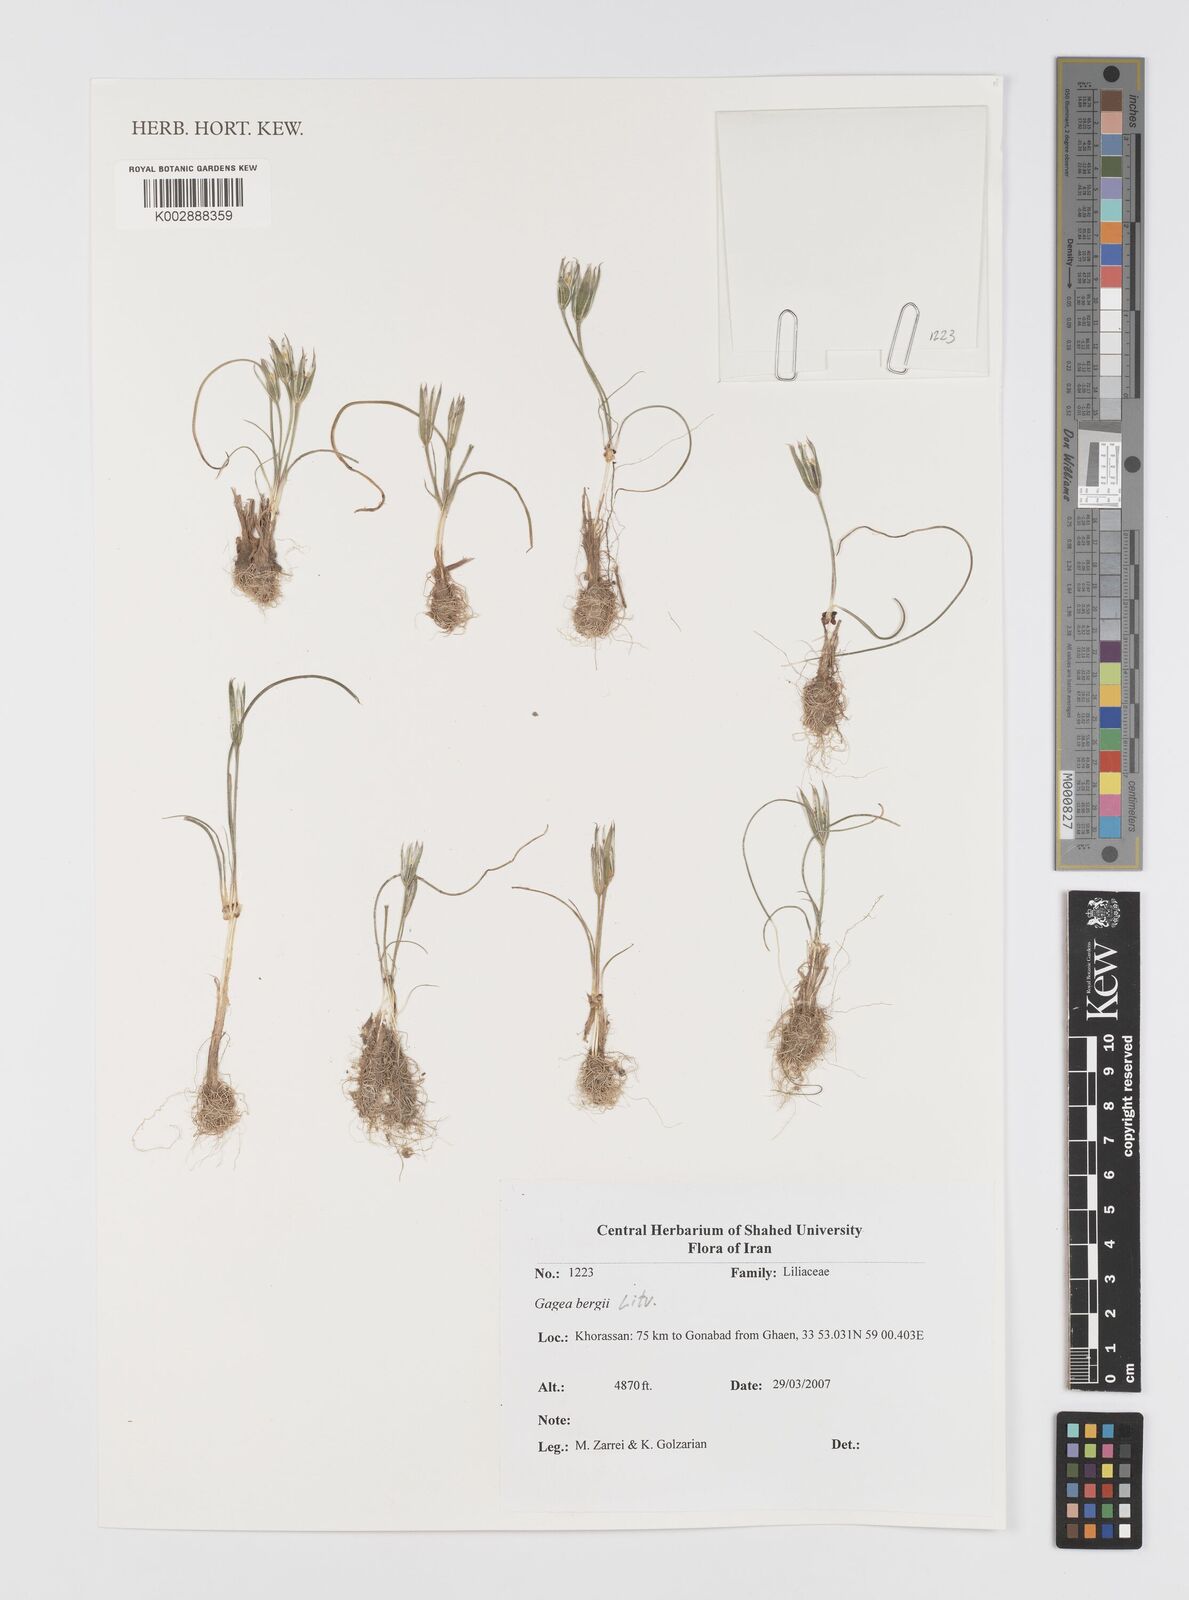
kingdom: Plantae
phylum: Tracheophyta
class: Liliopsida
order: Liliales
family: Liliaceae
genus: Gagea
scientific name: Gagea bergii
